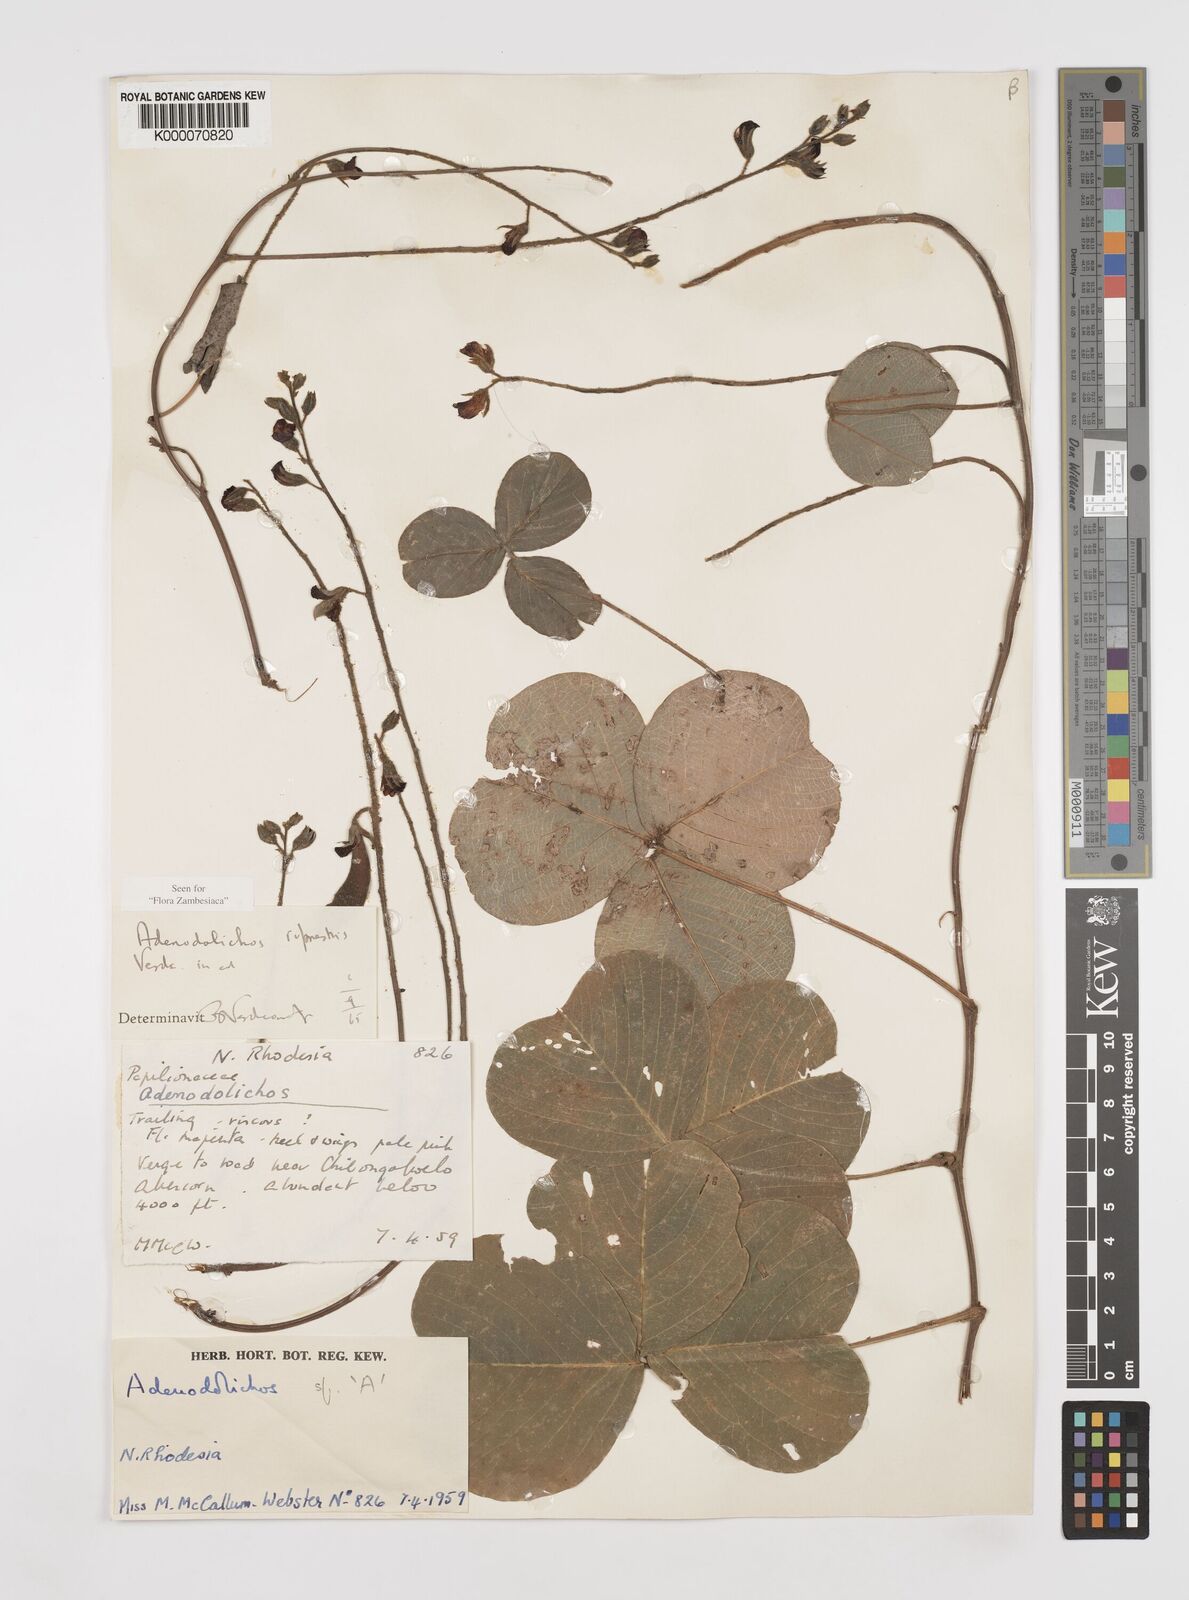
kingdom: Plantae
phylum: Tracheophyta
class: Magnoliopsida
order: Fabales
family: Fabaceae
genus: Adenodolichos
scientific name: Adenodolichos rupestris
